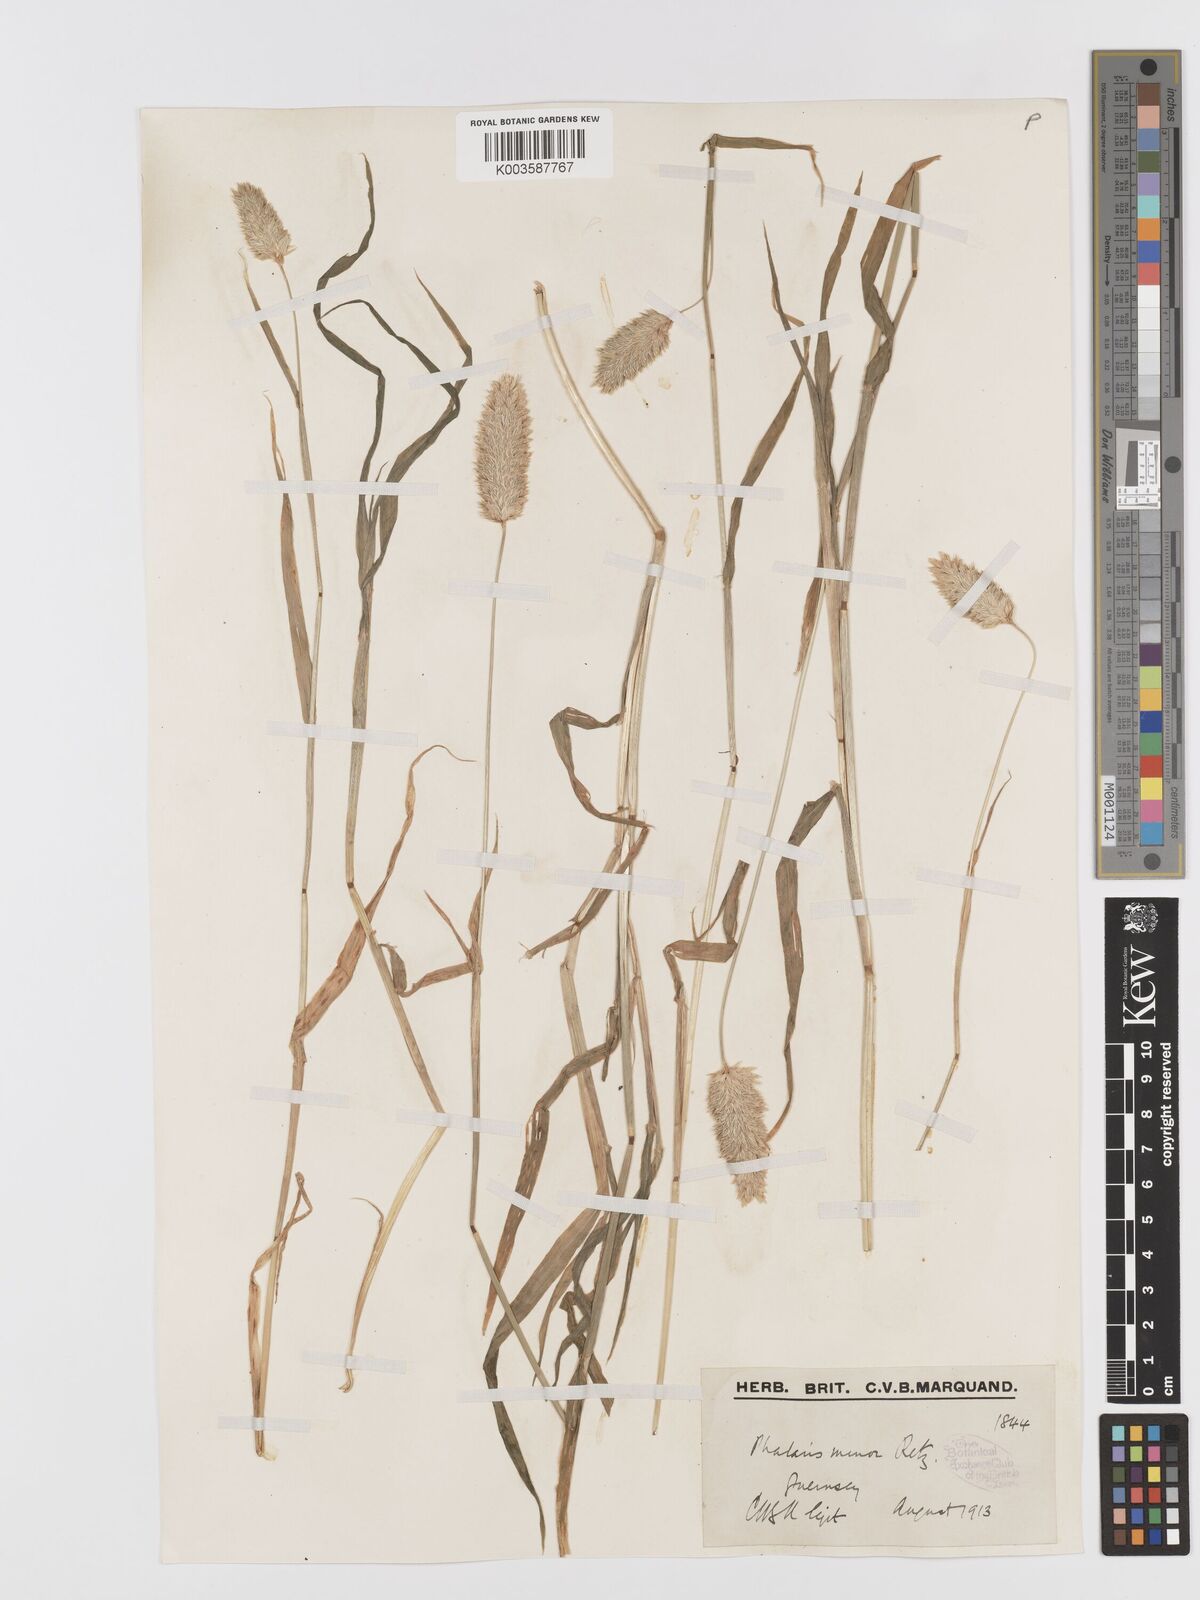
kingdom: Plantae
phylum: Tracheophyta
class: Liliopsida
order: Poales
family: Poaceae
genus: Phalaris
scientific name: Phalaris minor
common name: Littleseed canarygrass
